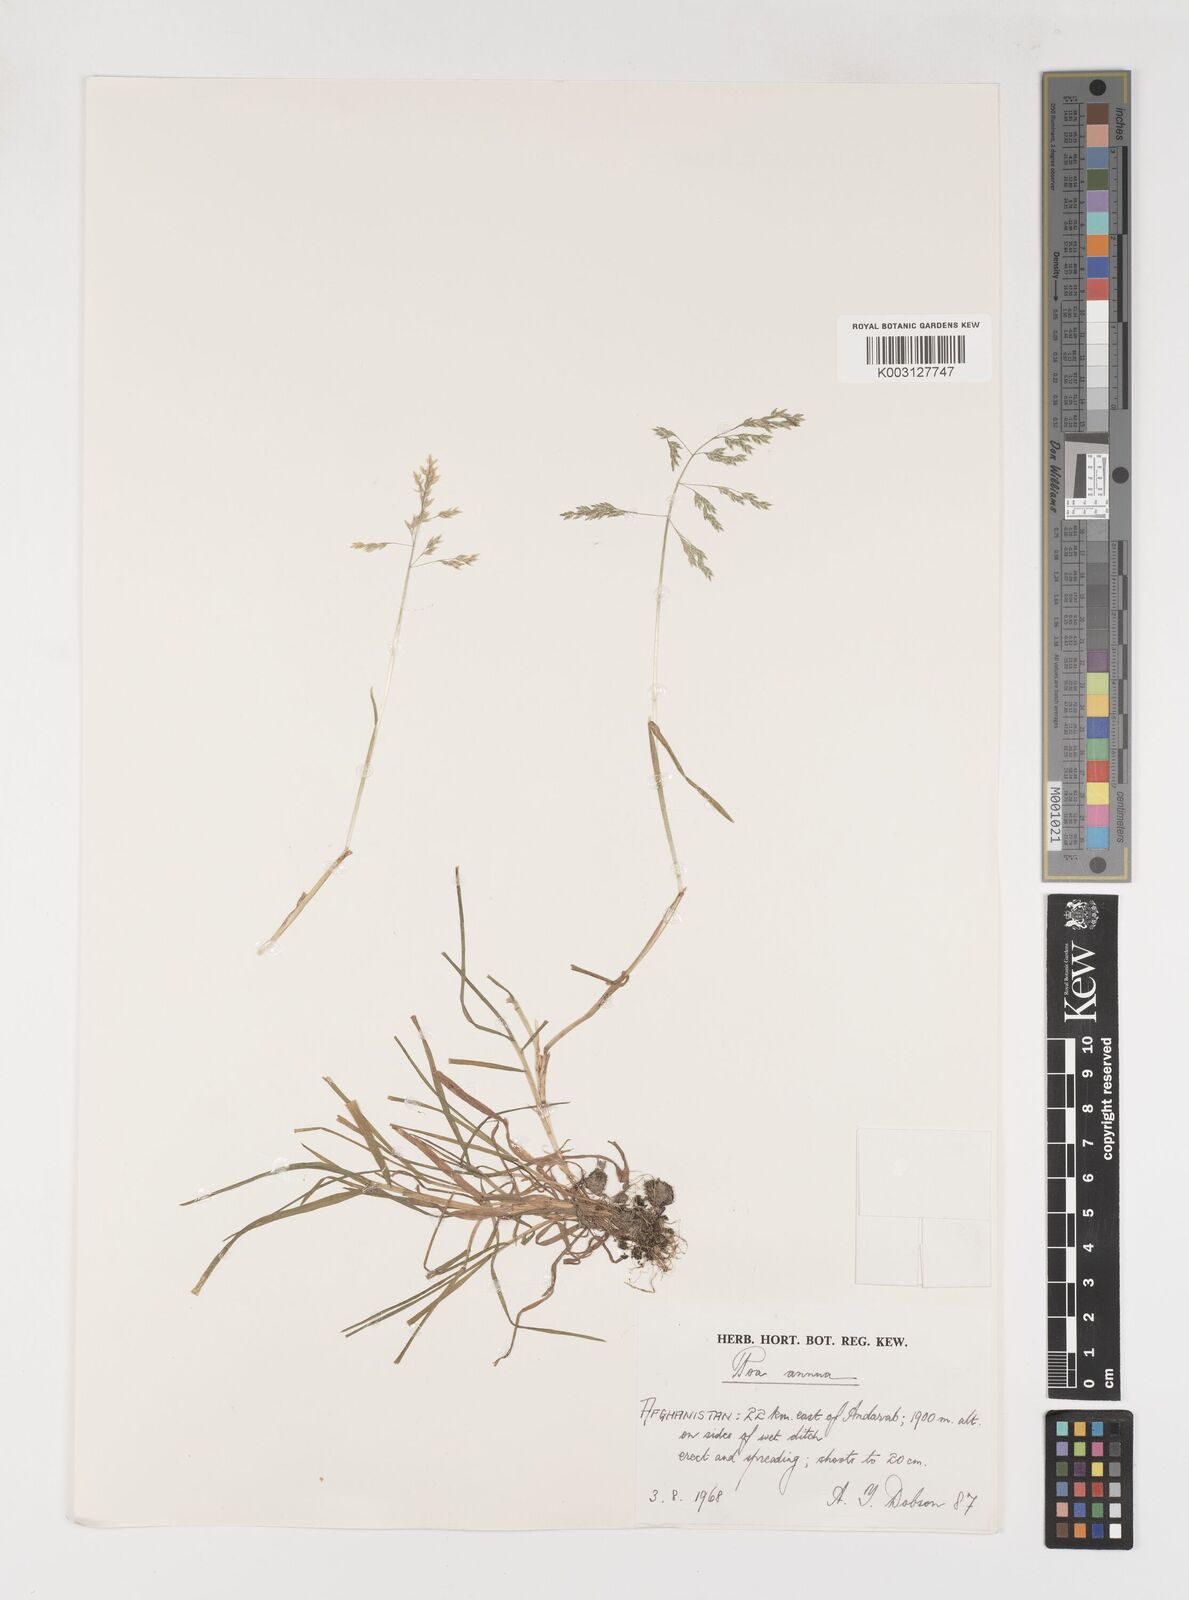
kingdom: Plantae
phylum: Tracheophyta
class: Liliopsida
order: Poales
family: Poaceae
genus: Poa
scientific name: Poa annua
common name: Annual bluegrass
